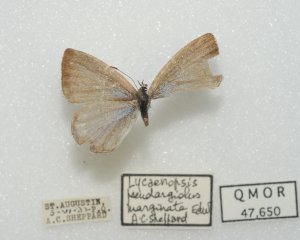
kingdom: Animalia
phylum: Arthropoda
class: Insecta
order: Lepidoptera
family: Lycaenidae
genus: Celastrina
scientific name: Celastrina lucia
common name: Northern Spring Azure
